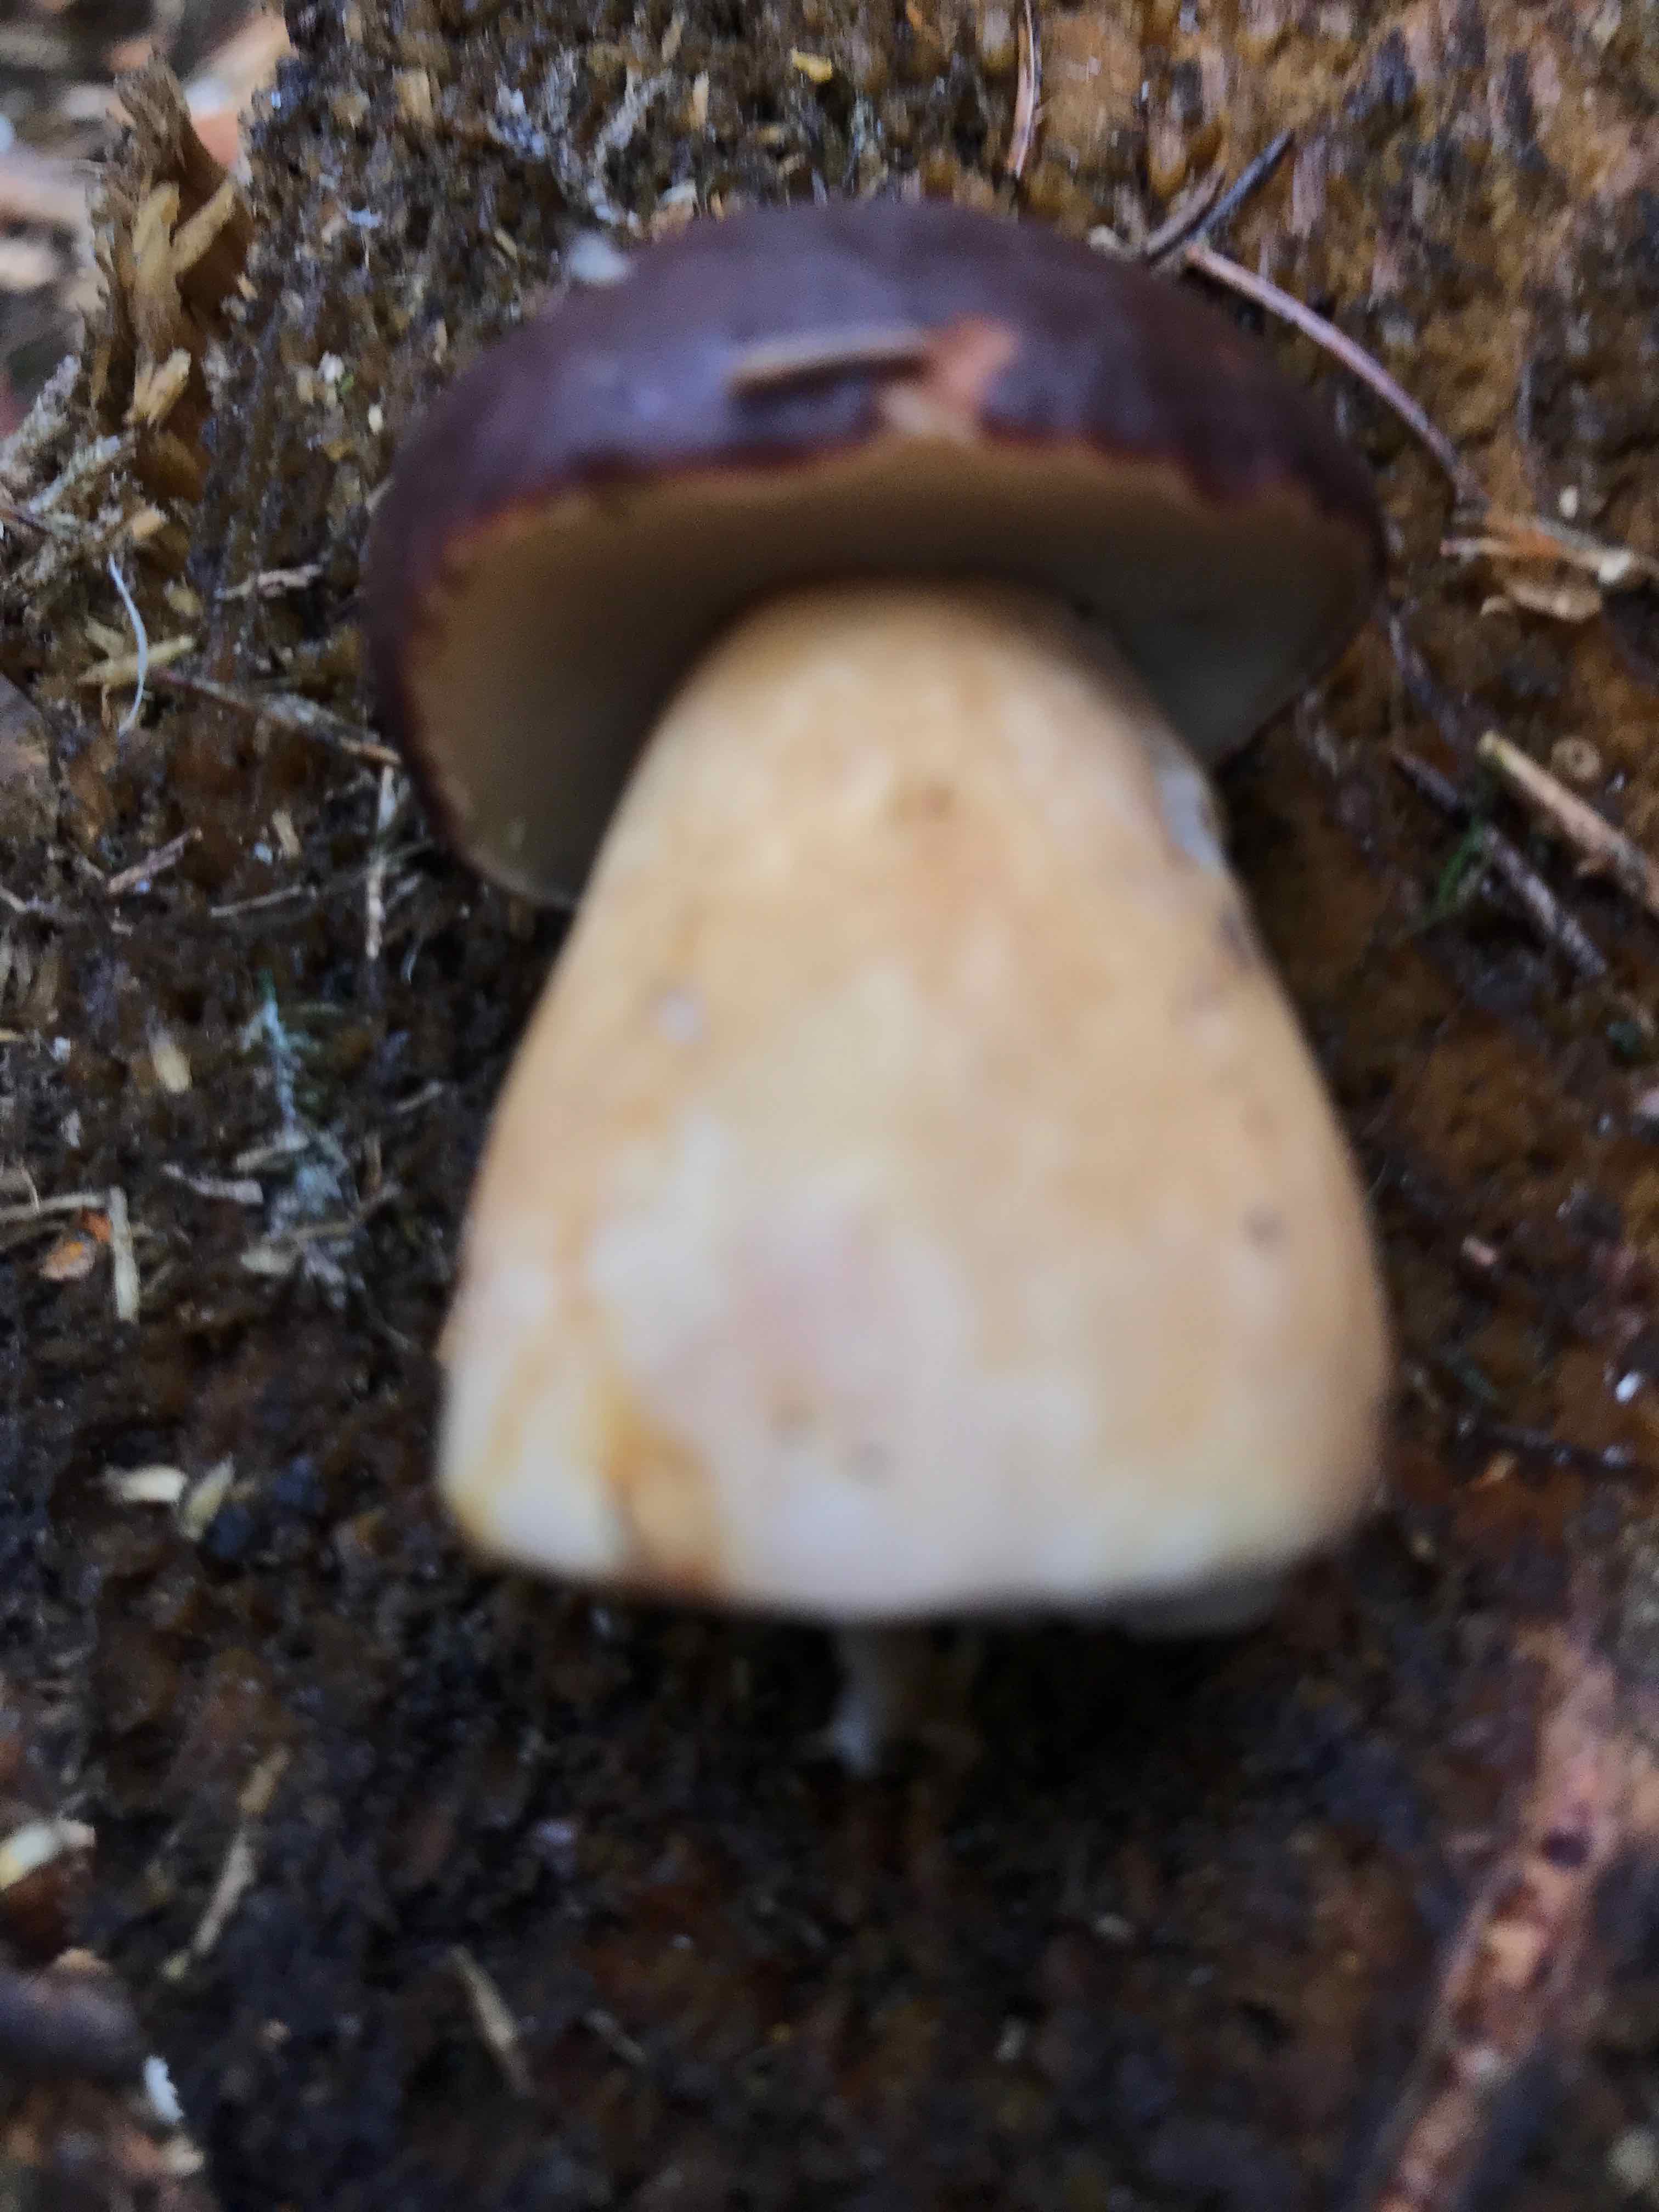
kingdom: Fungi
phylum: Basidiomycota
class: Agaricomycetes
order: Boletales
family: Boletaceae
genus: Imleria
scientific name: Imleria badia
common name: brunstokket rørhat
